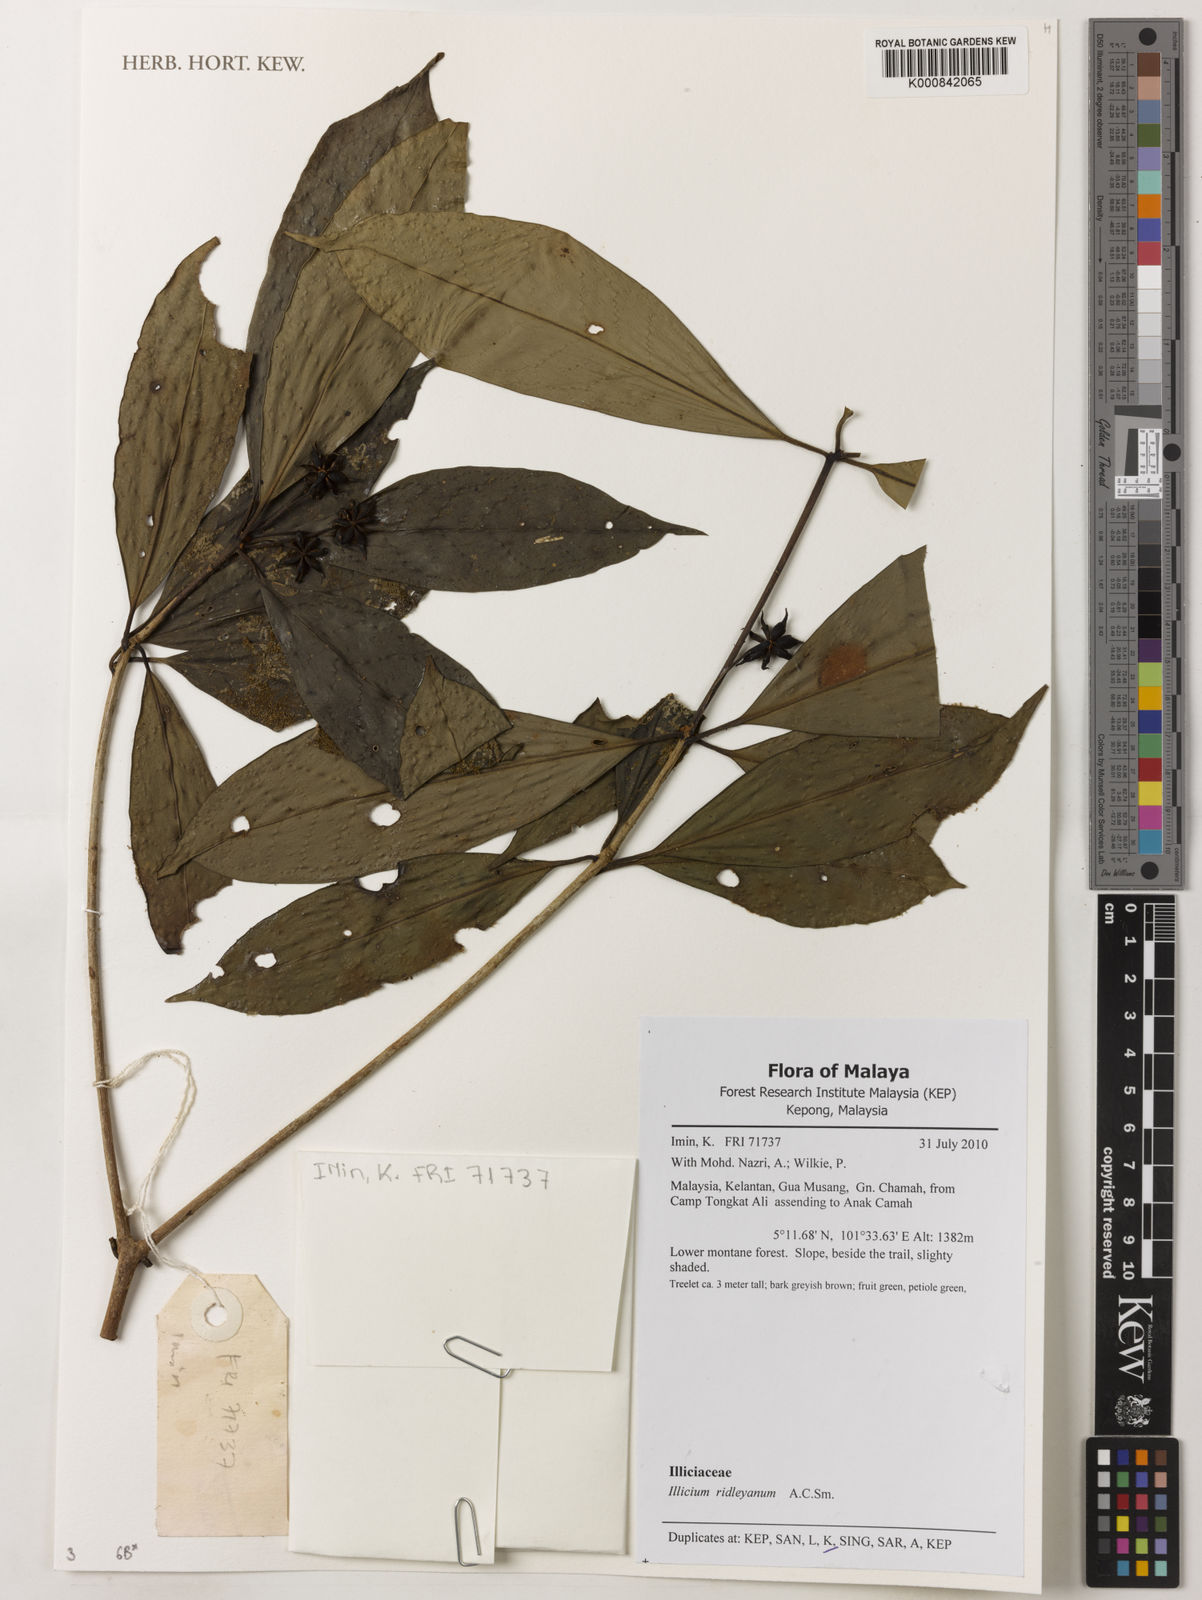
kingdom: Plantae
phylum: Tracheophyta
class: Magnoliopsida
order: Austrobaileyales
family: Schisandraceae
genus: Illicium
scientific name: Illicium ridleyanum
